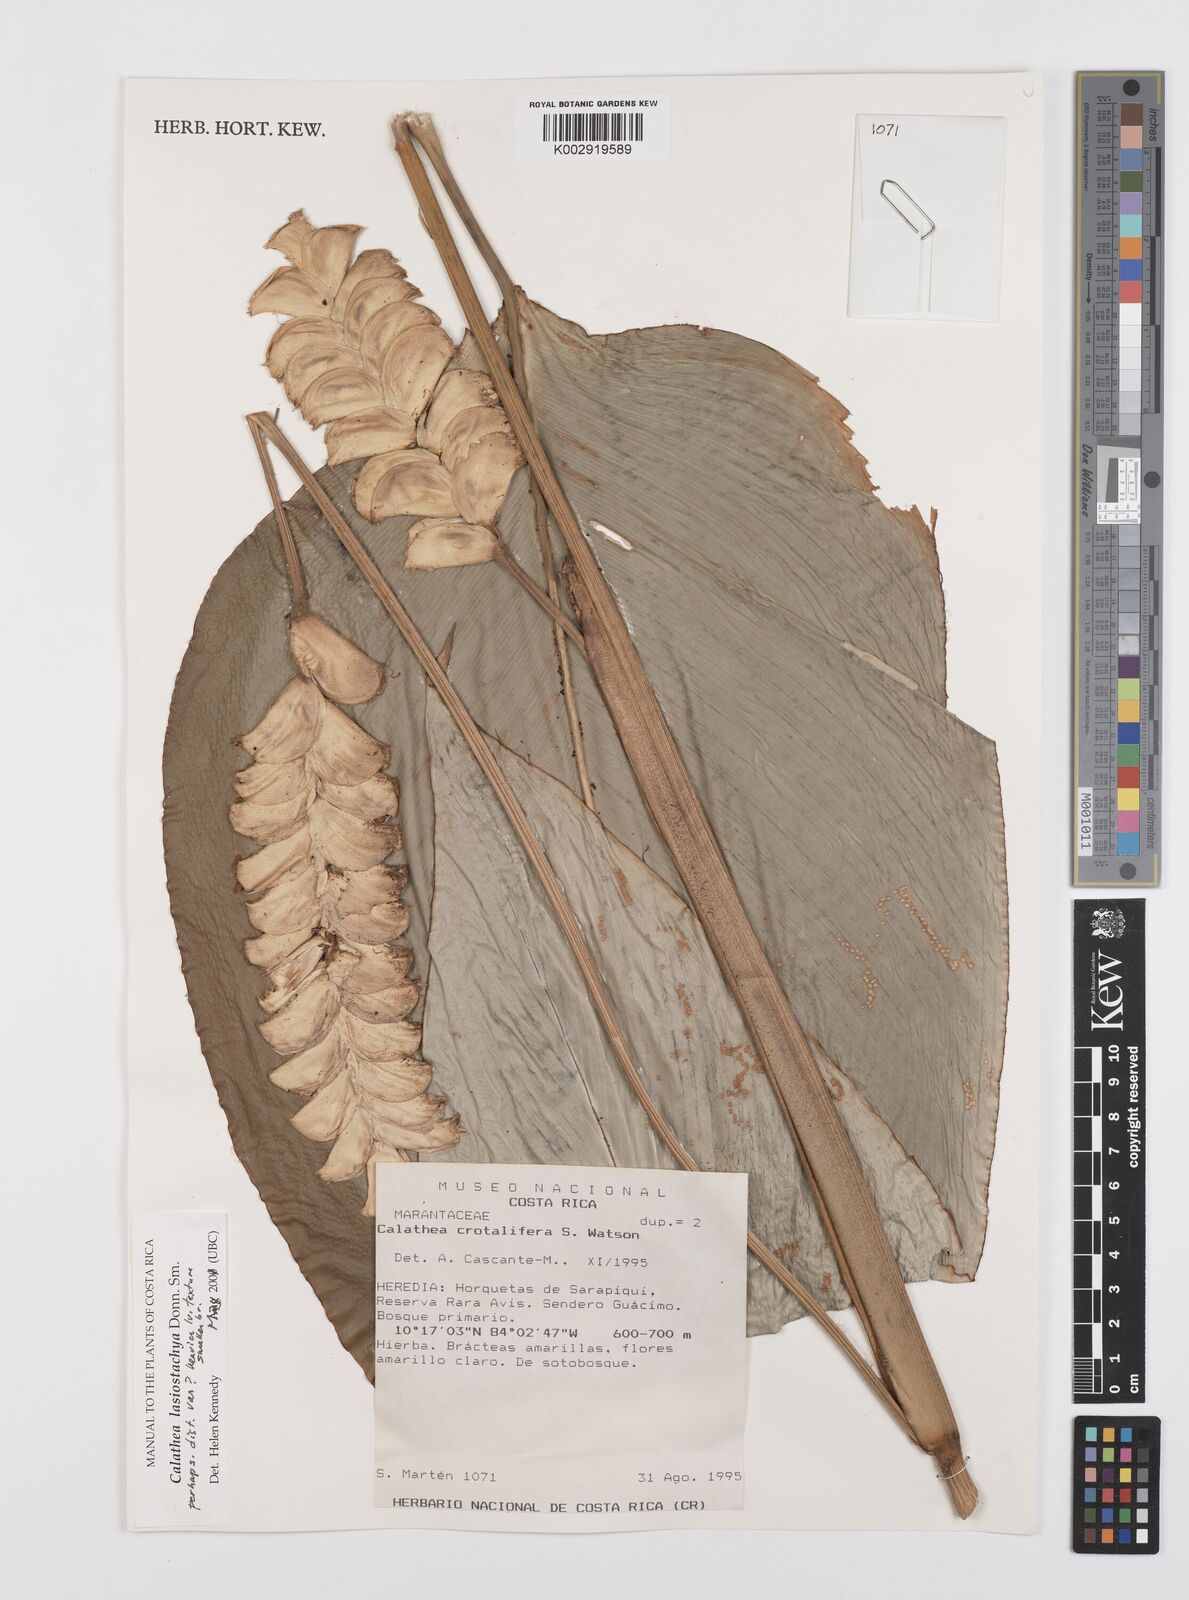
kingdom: Plantae
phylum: Tracheophyta
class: Liliopsida
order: Zingiberales
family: Marantaceae
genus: Calathea
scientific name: Calathea lasiostachya
